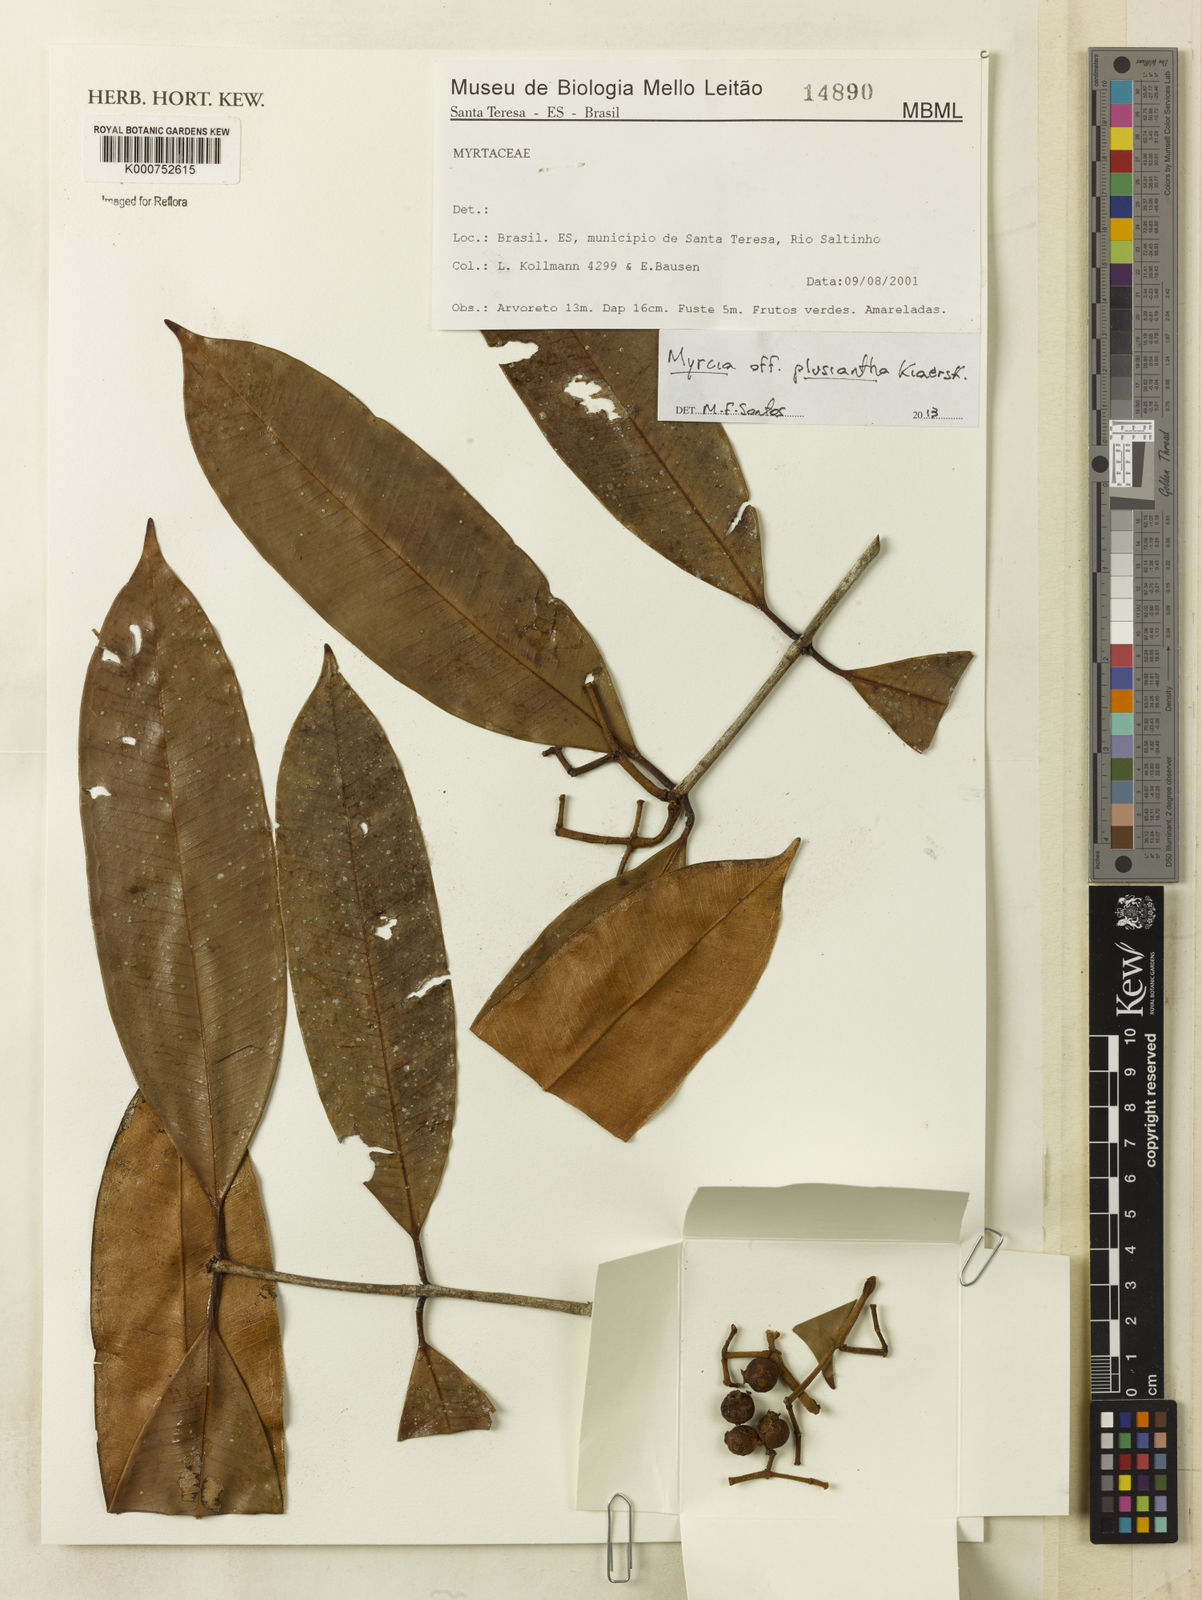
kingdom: Plantae
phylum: Tracheophyta
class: Magnoliopsida
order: Myrtales
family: Myrtaceae
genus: Myrcia
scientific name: Myrcia plusiantha
